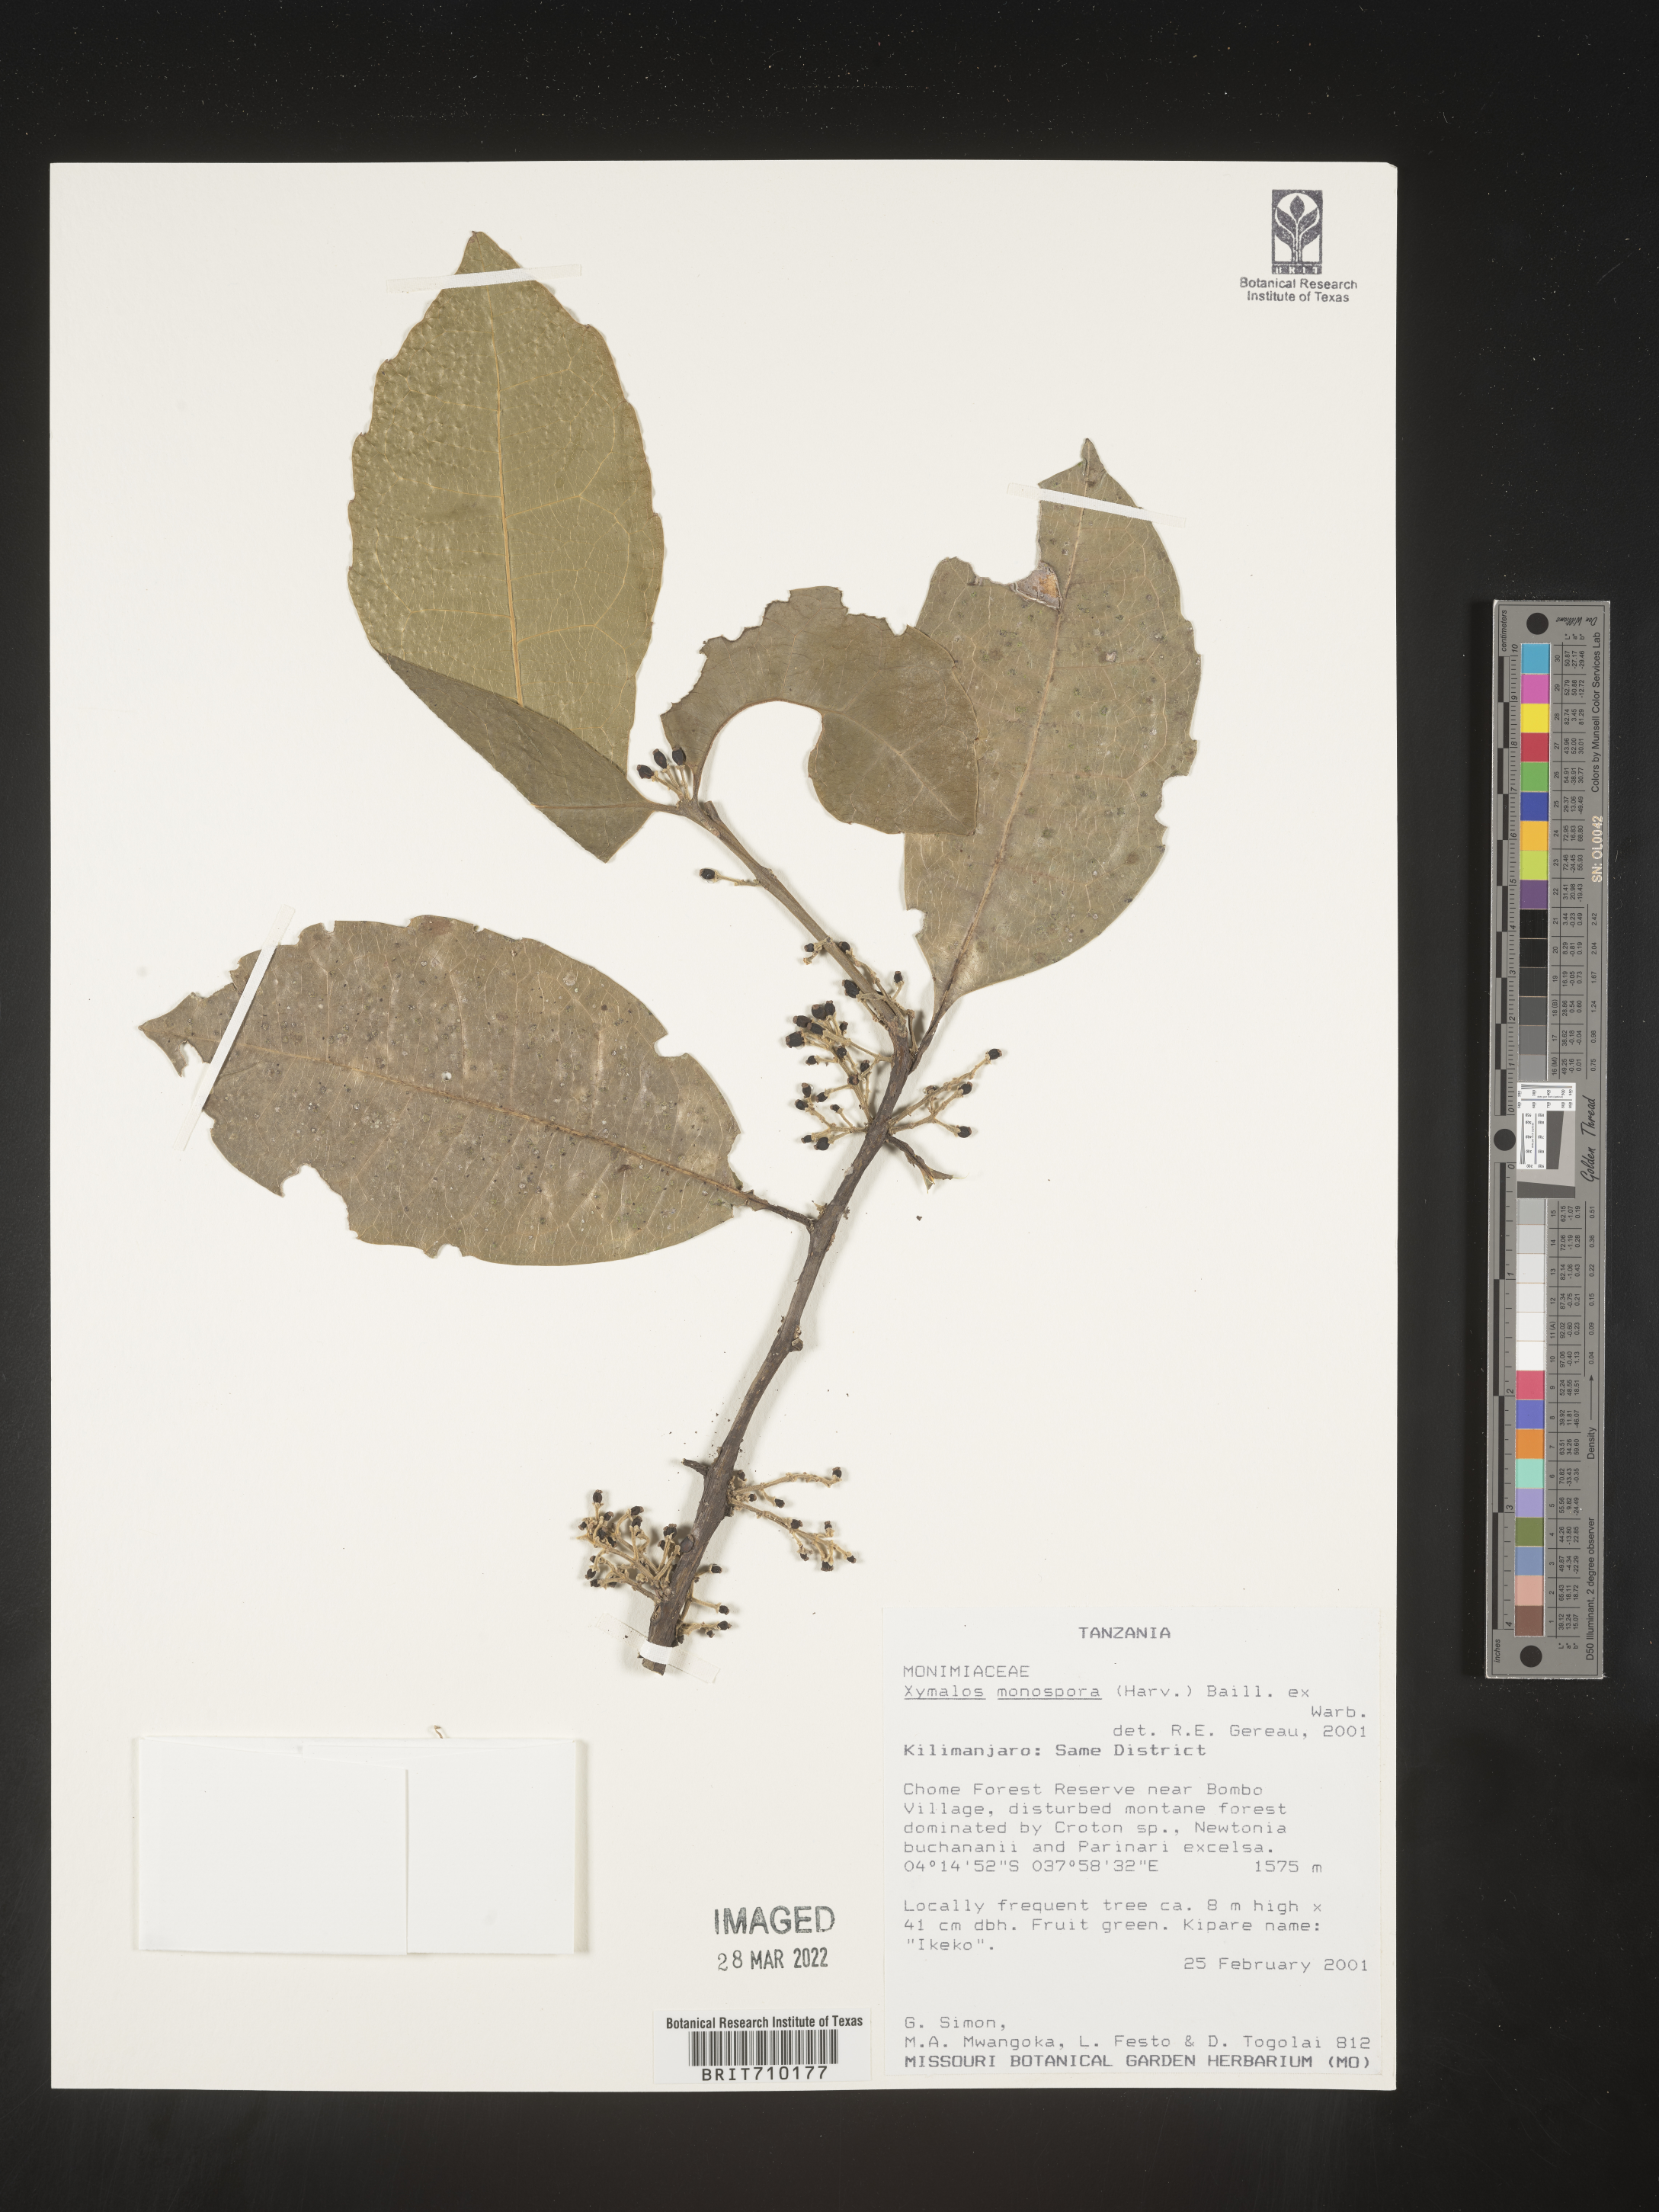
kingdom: Plantae
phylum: Tracheophyta
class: Magnoliopsida
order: Laurales
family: Monimiaceae
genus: Xymalos
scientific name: Xymalos
